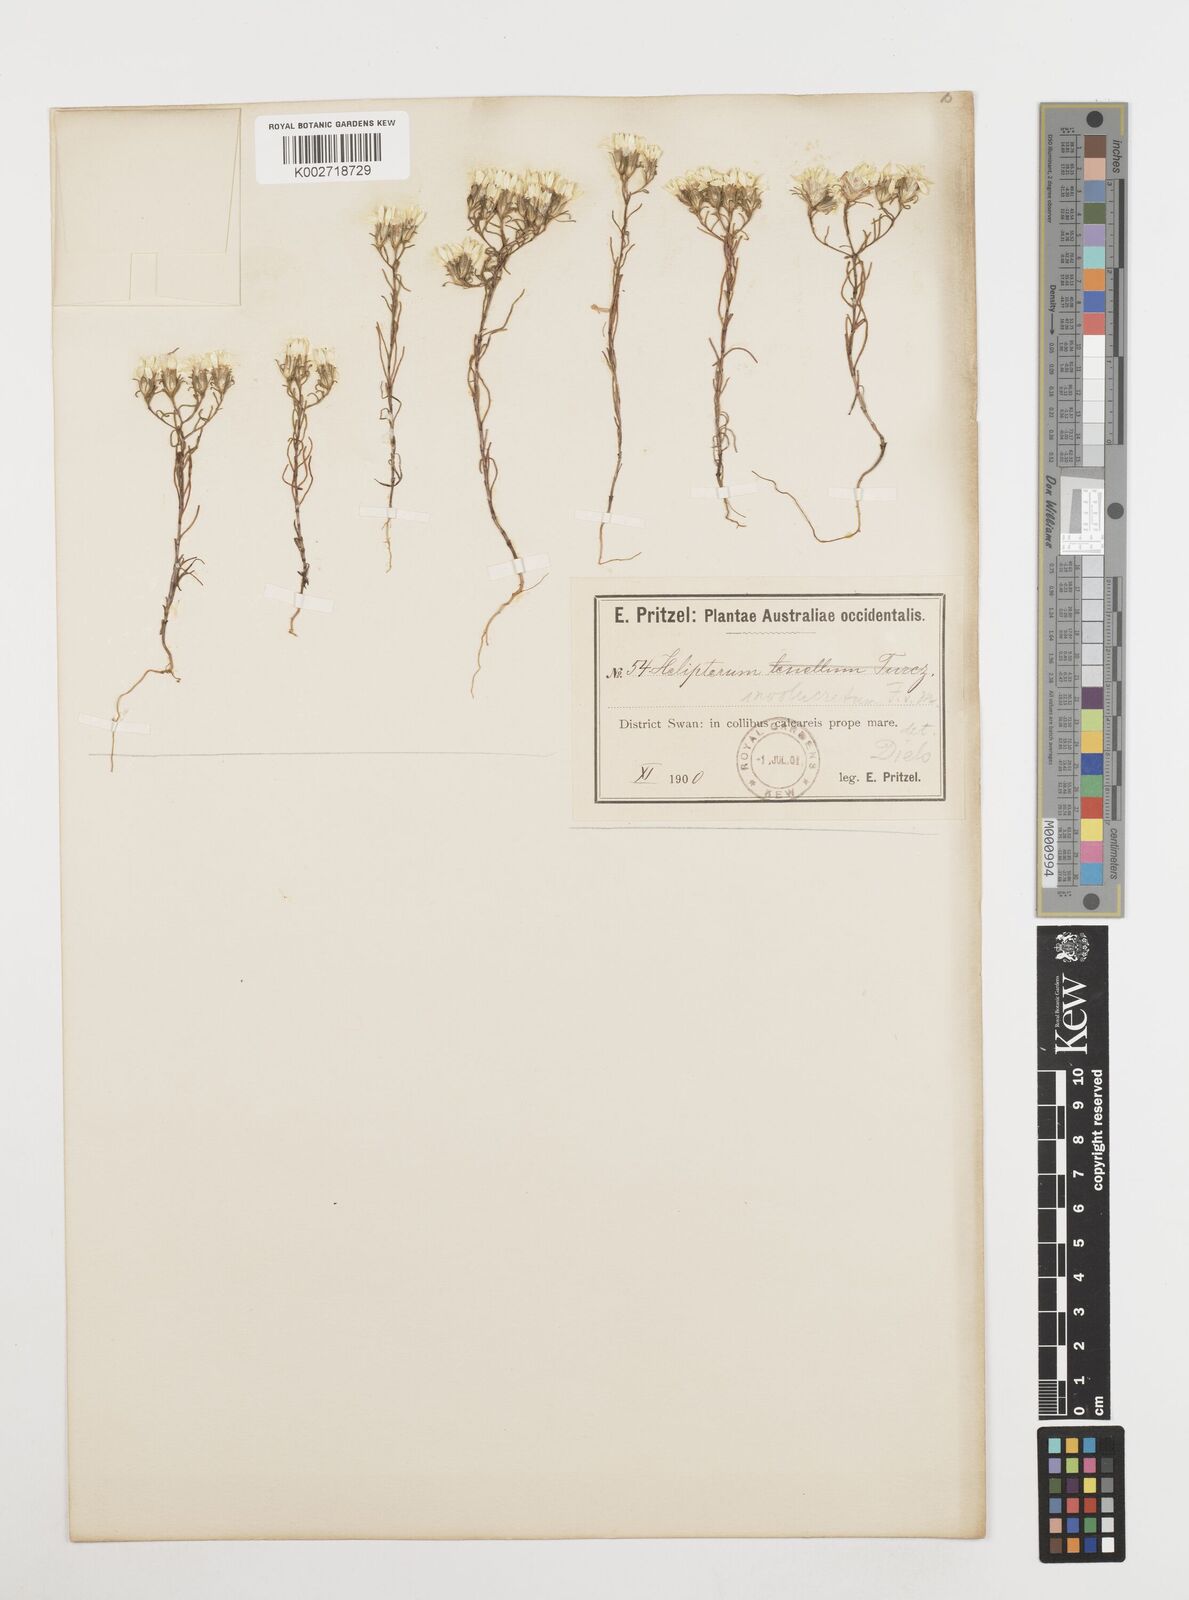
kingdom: Plantae
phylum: Tracheophyta
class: Magnoliopsida
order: Asterales
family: Asteraceae
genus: Erymophyllum
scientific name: Erymophyllum ramosum
